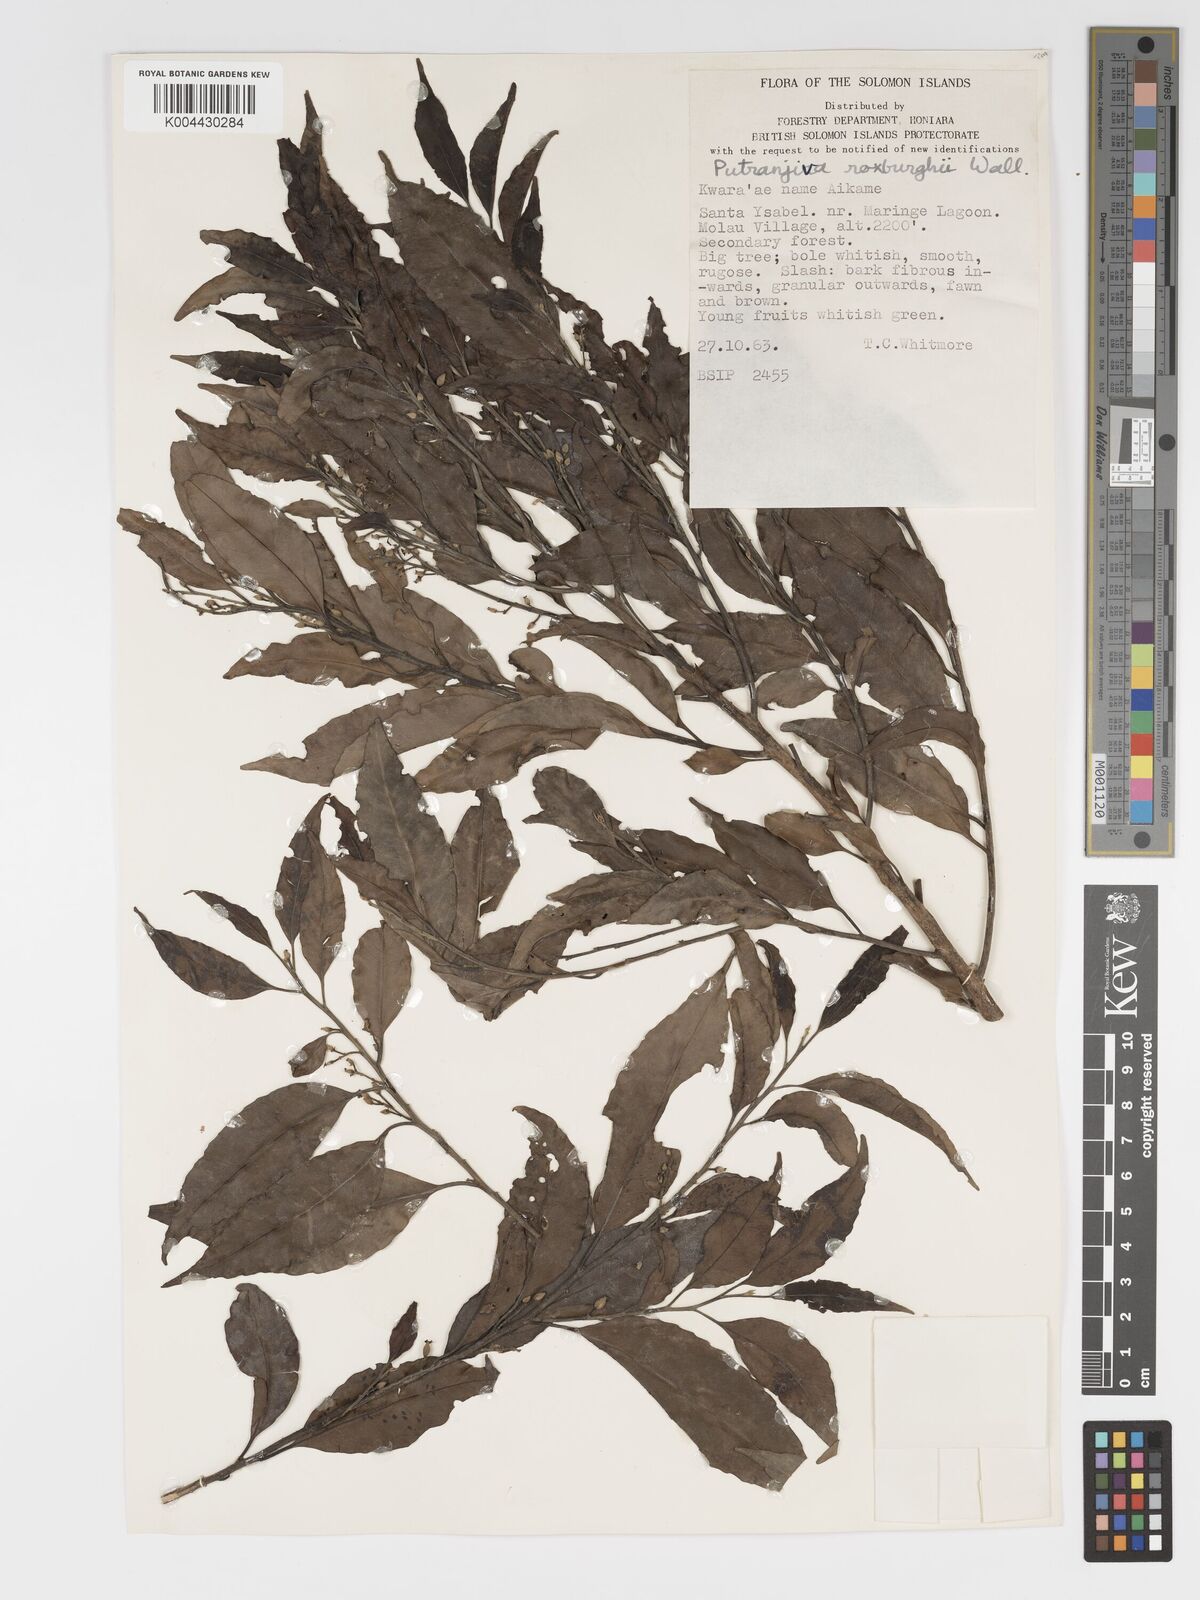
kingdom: Plantae
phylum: Tracheophyta
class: Magnoliopsida
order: Malpighiales
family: Putranjivaceae
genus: Putranjiva
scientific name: Putranjiva roxburghii
